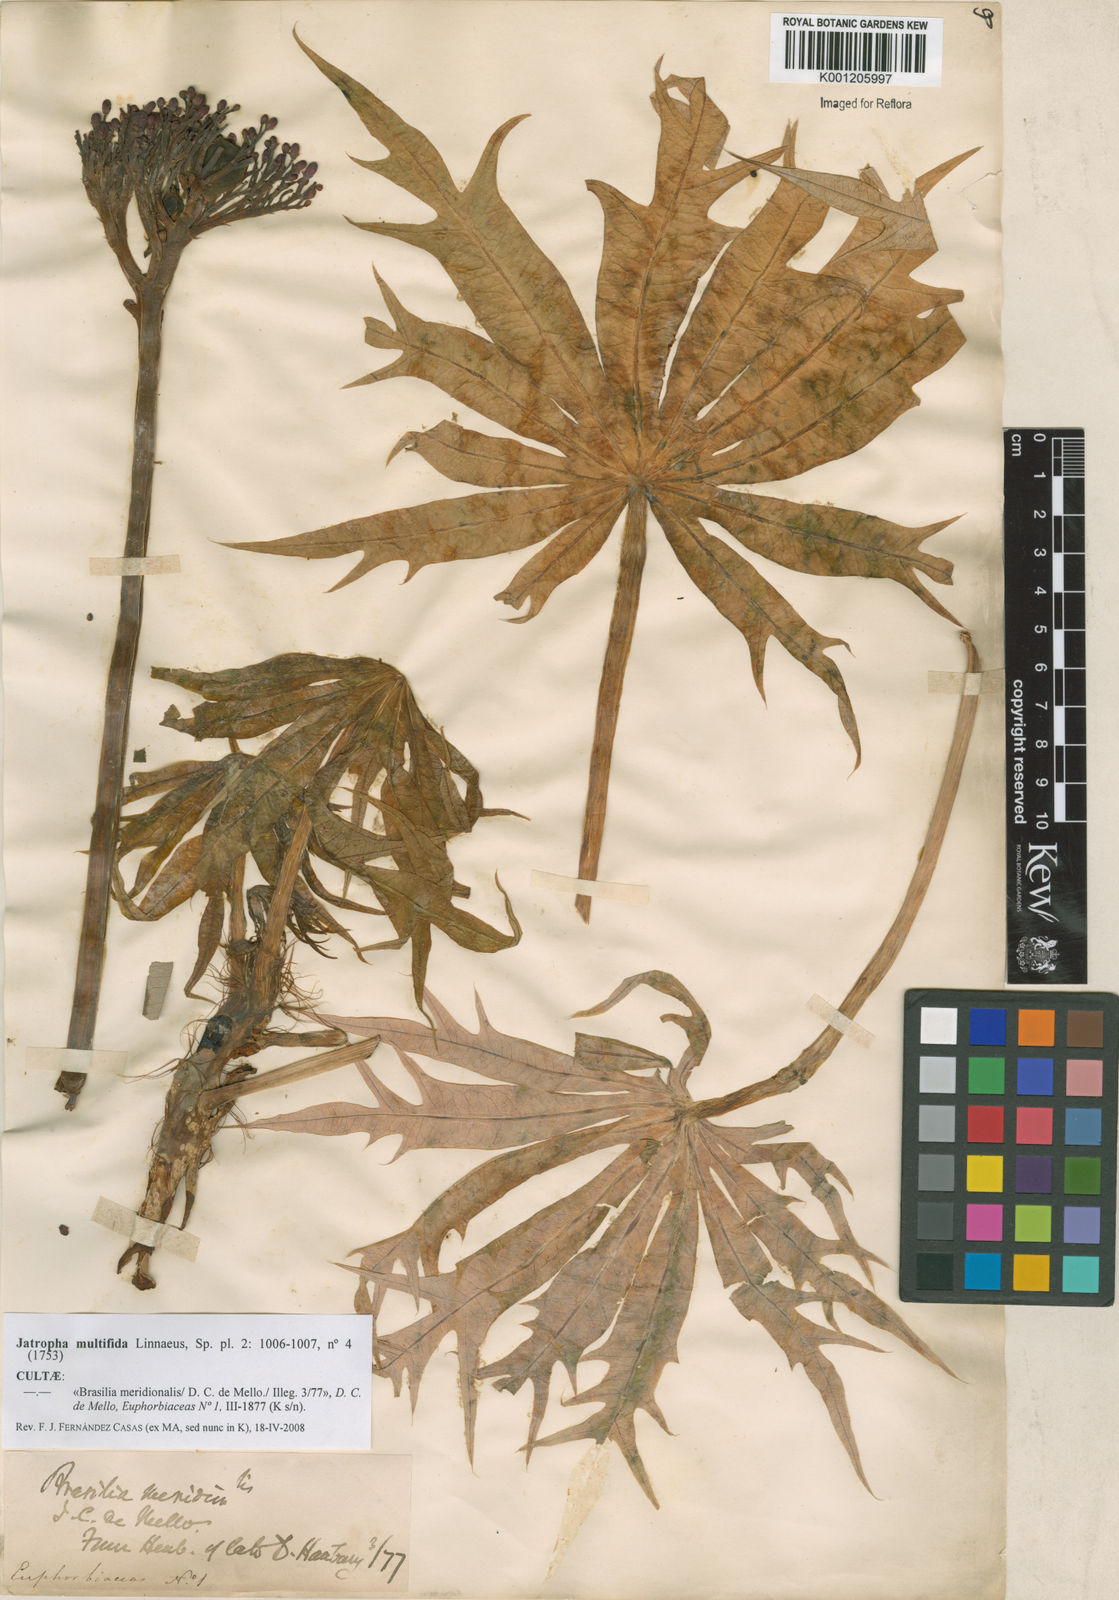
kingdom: Plantae
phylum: Tracheophyta
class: Magnoliopsida
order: Malpighiales
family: Euphorbiaceae
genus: Jatropha
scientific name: Jatropha multifida
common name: Coralbush
